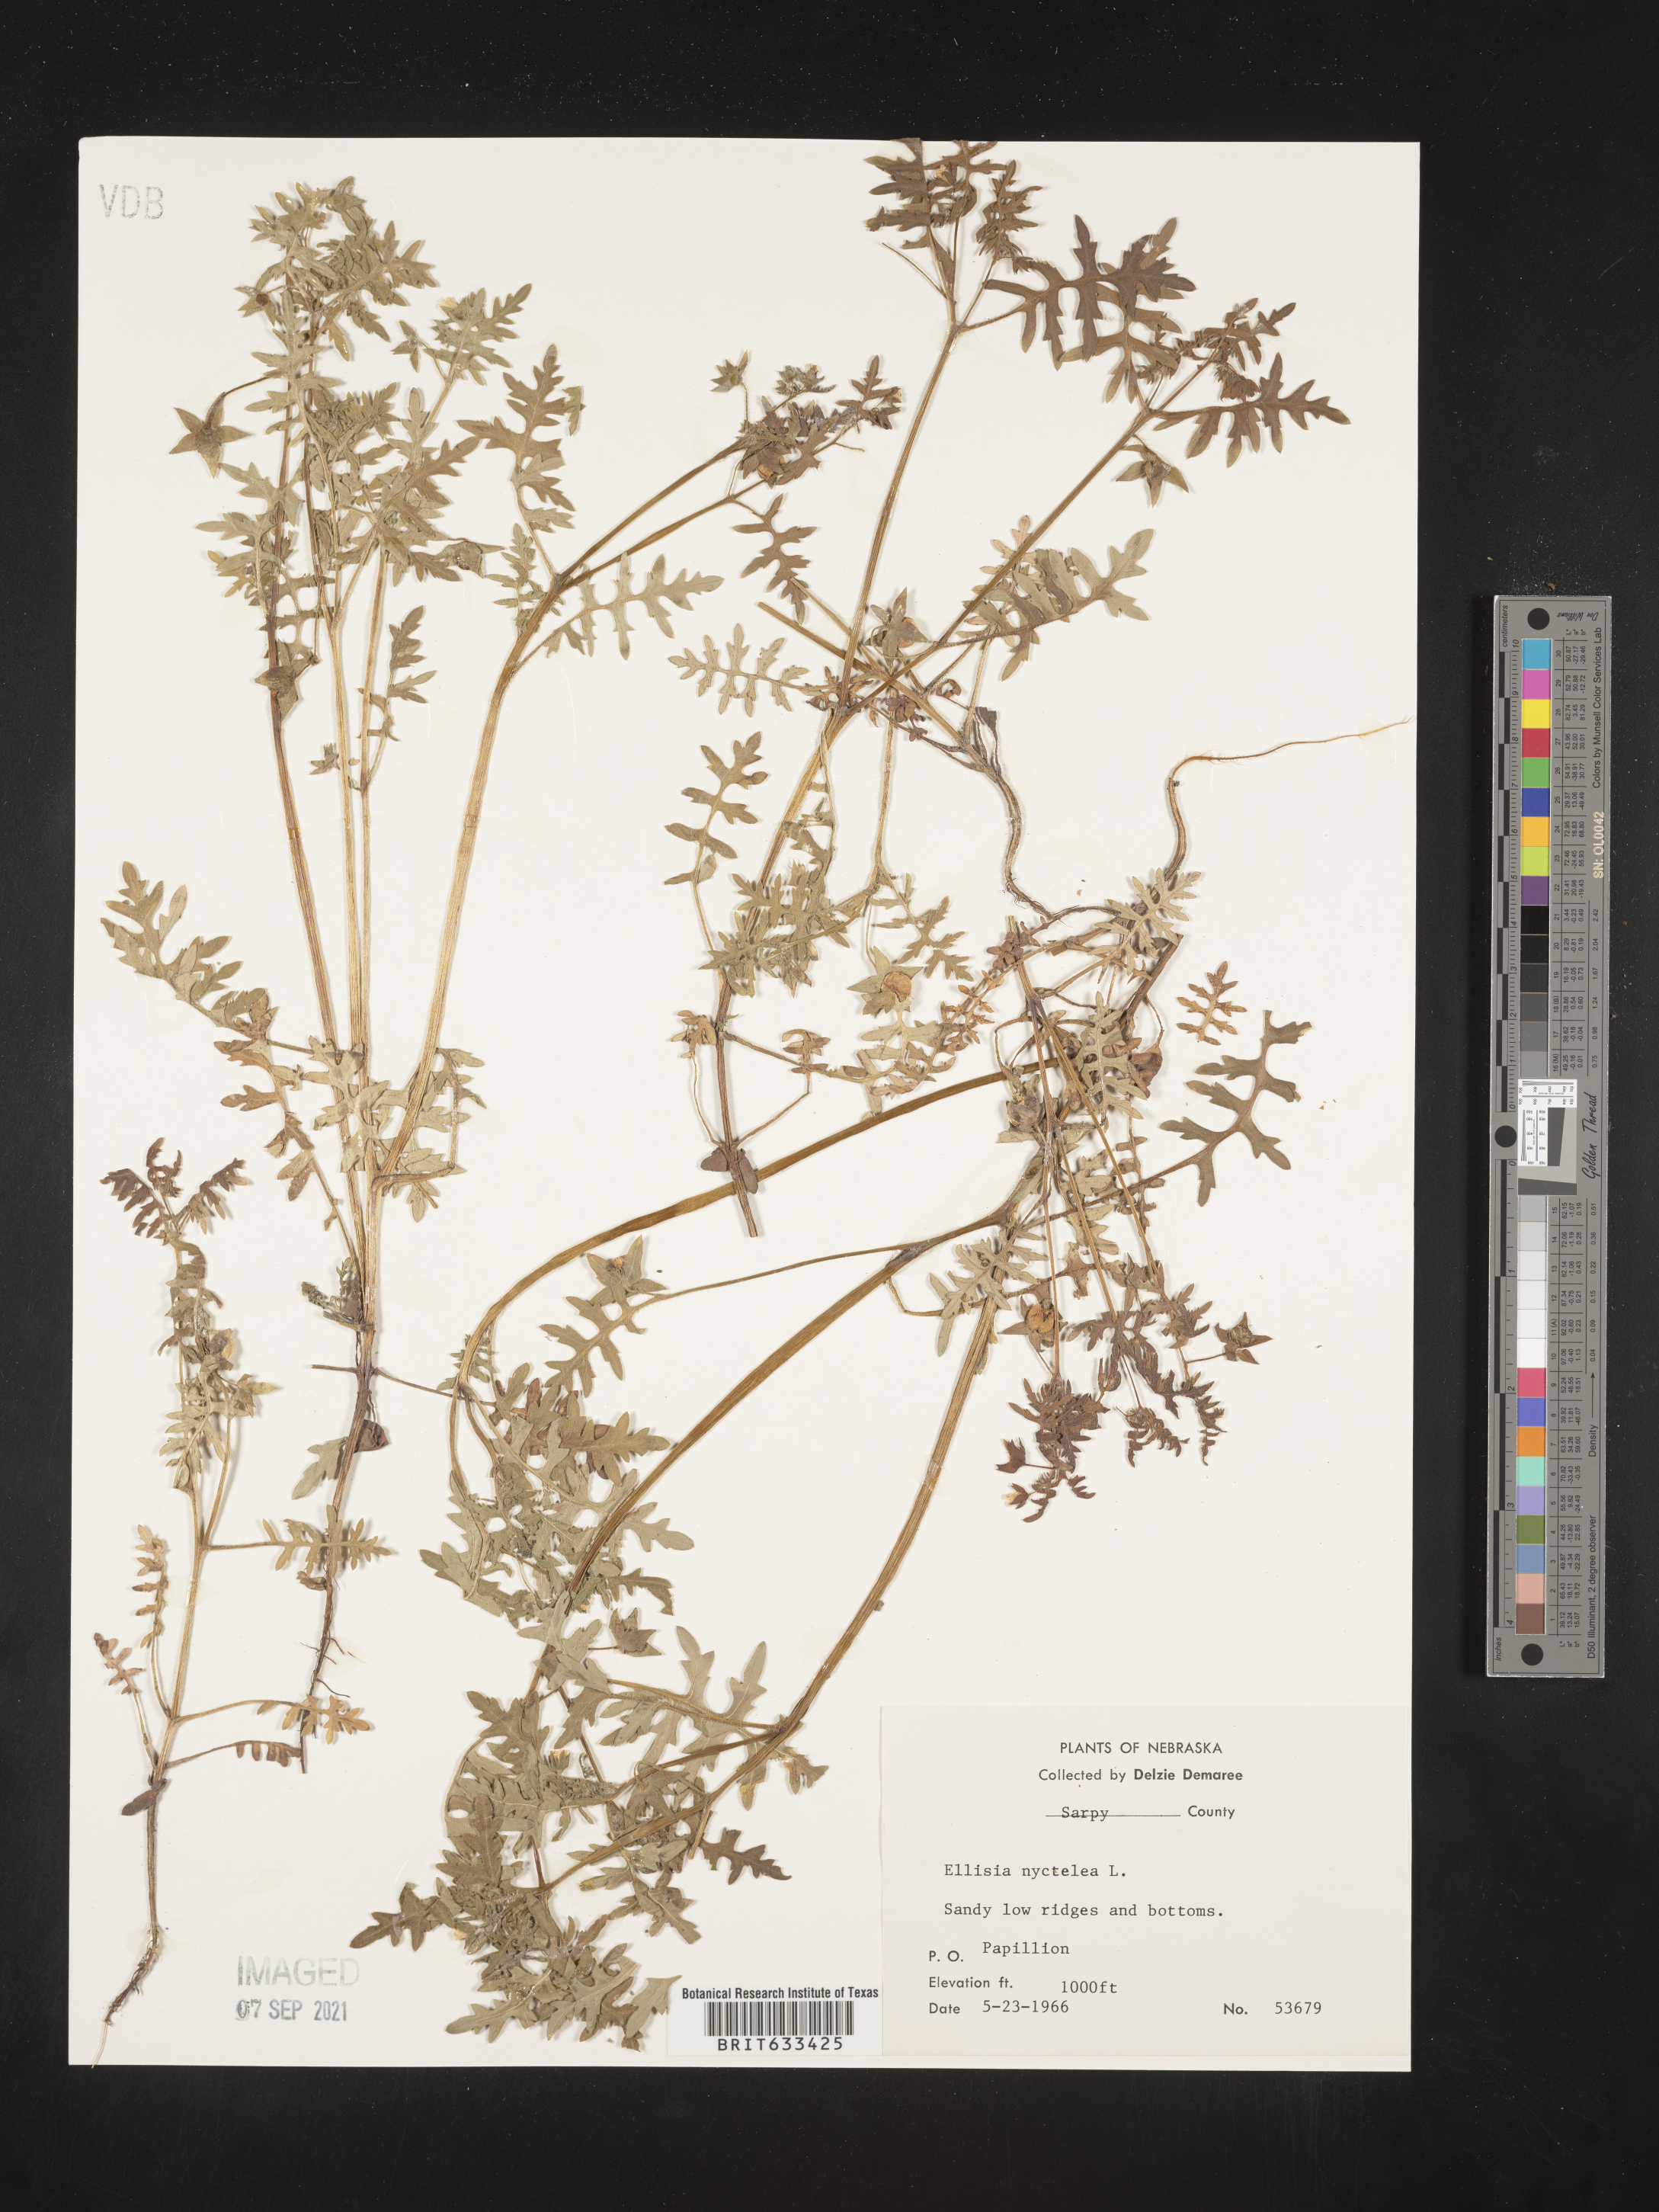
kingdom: Plantae
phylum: Tracheophyta
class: Magnoliopsida
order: Boraginales
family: Hydrophyllaceae
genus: Ellisia
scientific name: Ellisia nyctelea
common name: Aunt lucy
